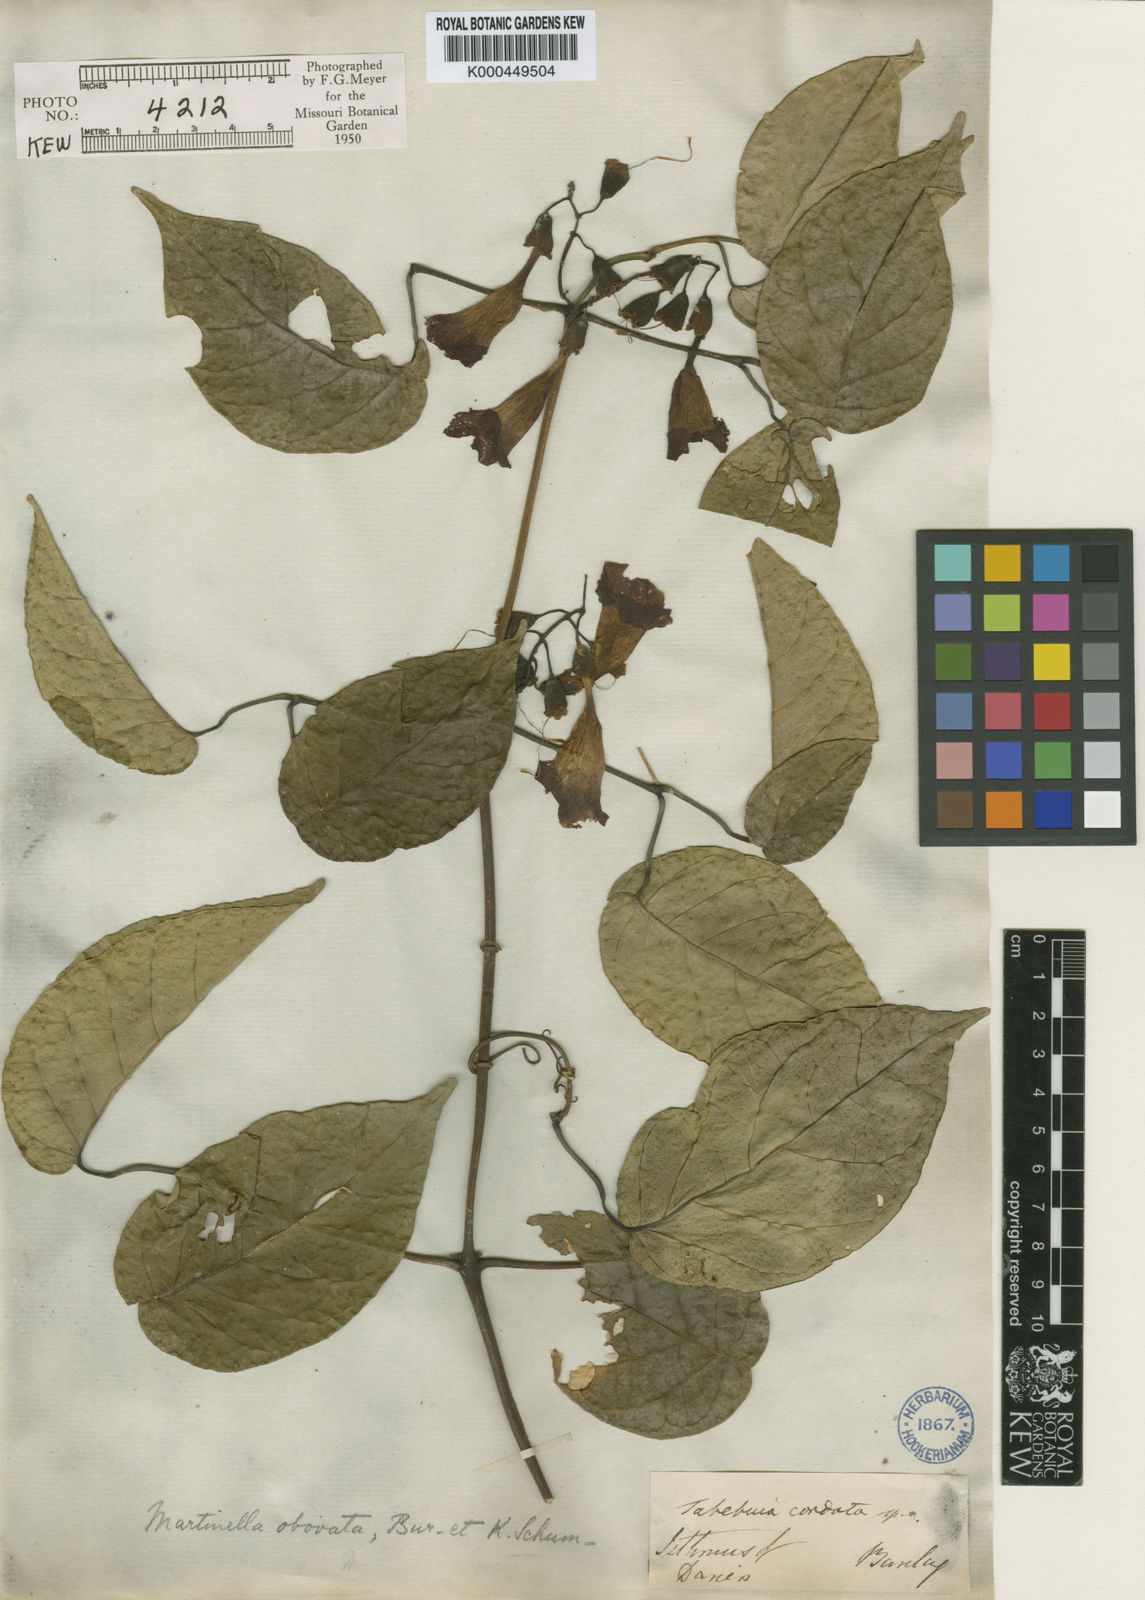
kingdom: Animalia
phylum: Arthropoda
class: Insecta
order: Coleoptera
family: Chrysomelidae
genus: Martinella
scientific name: Martinella obovata
